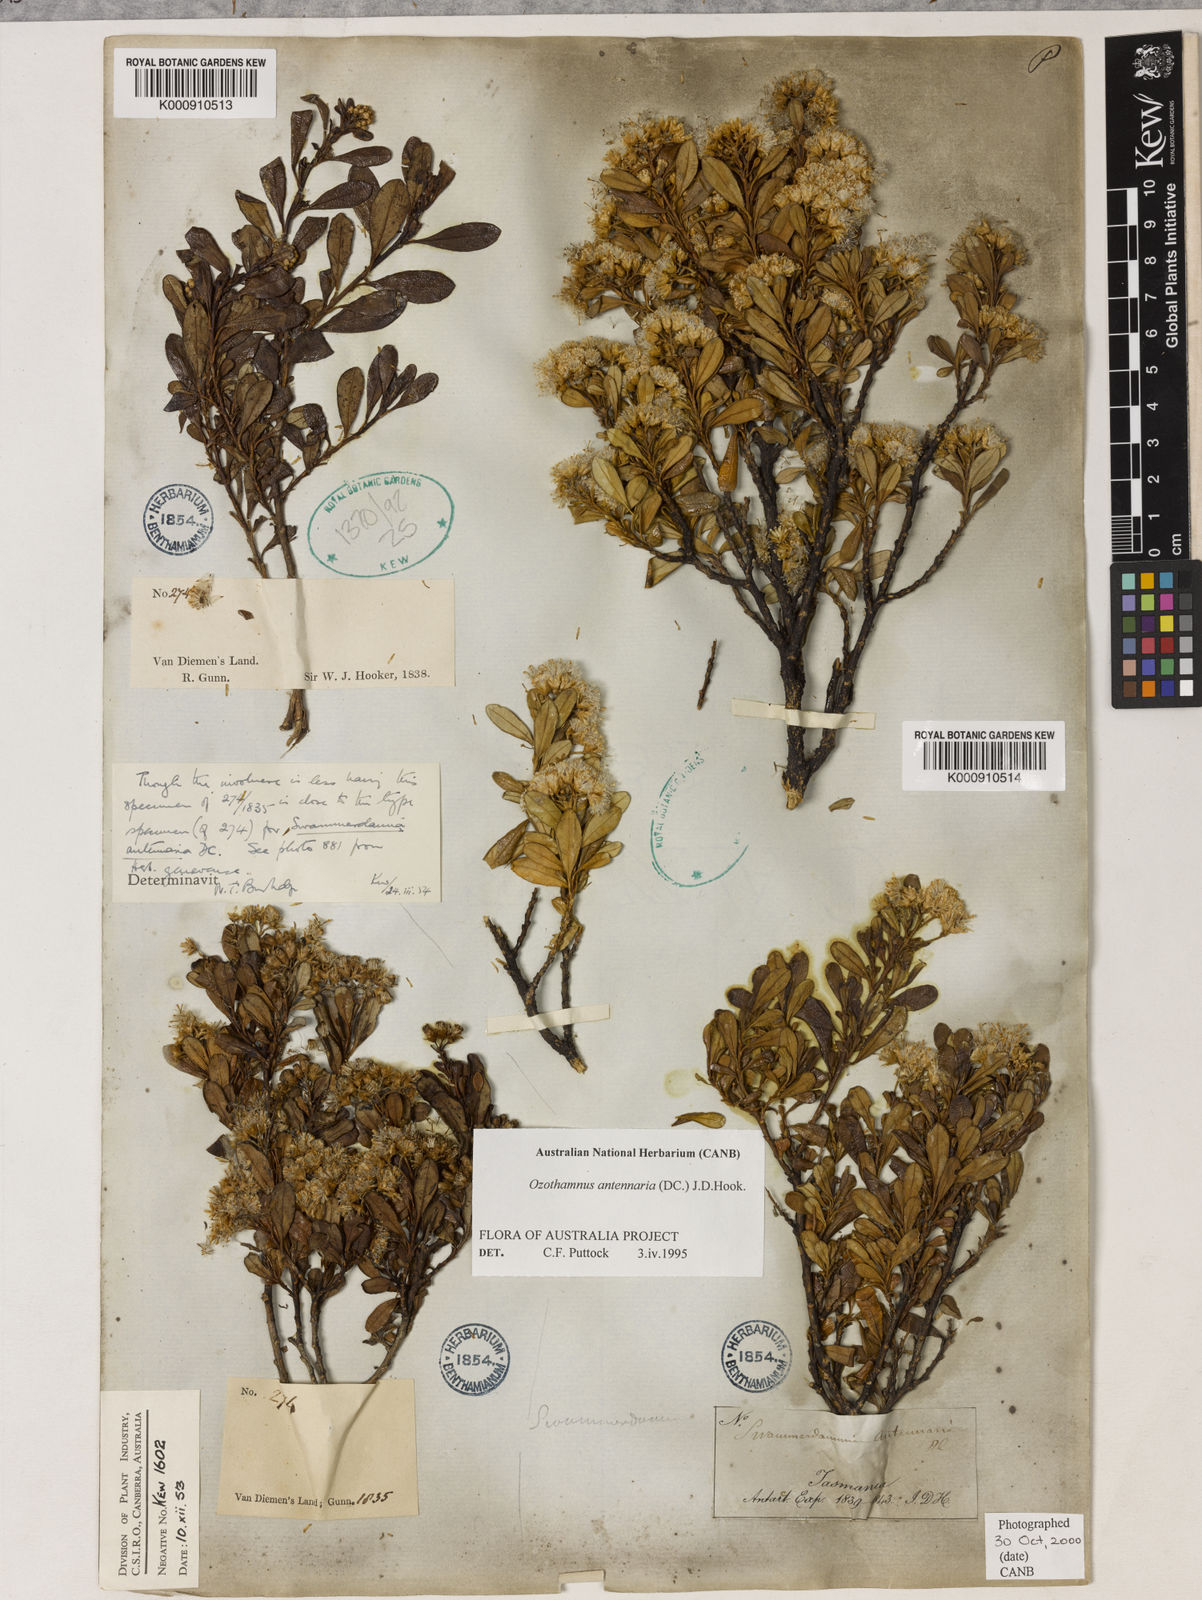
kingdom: Plantae
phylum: Tracheophyta
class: Magnoliopsida
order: Asterales
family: Asteraceae
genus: Ozothamnus
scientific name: Ozothamnus antennaria
